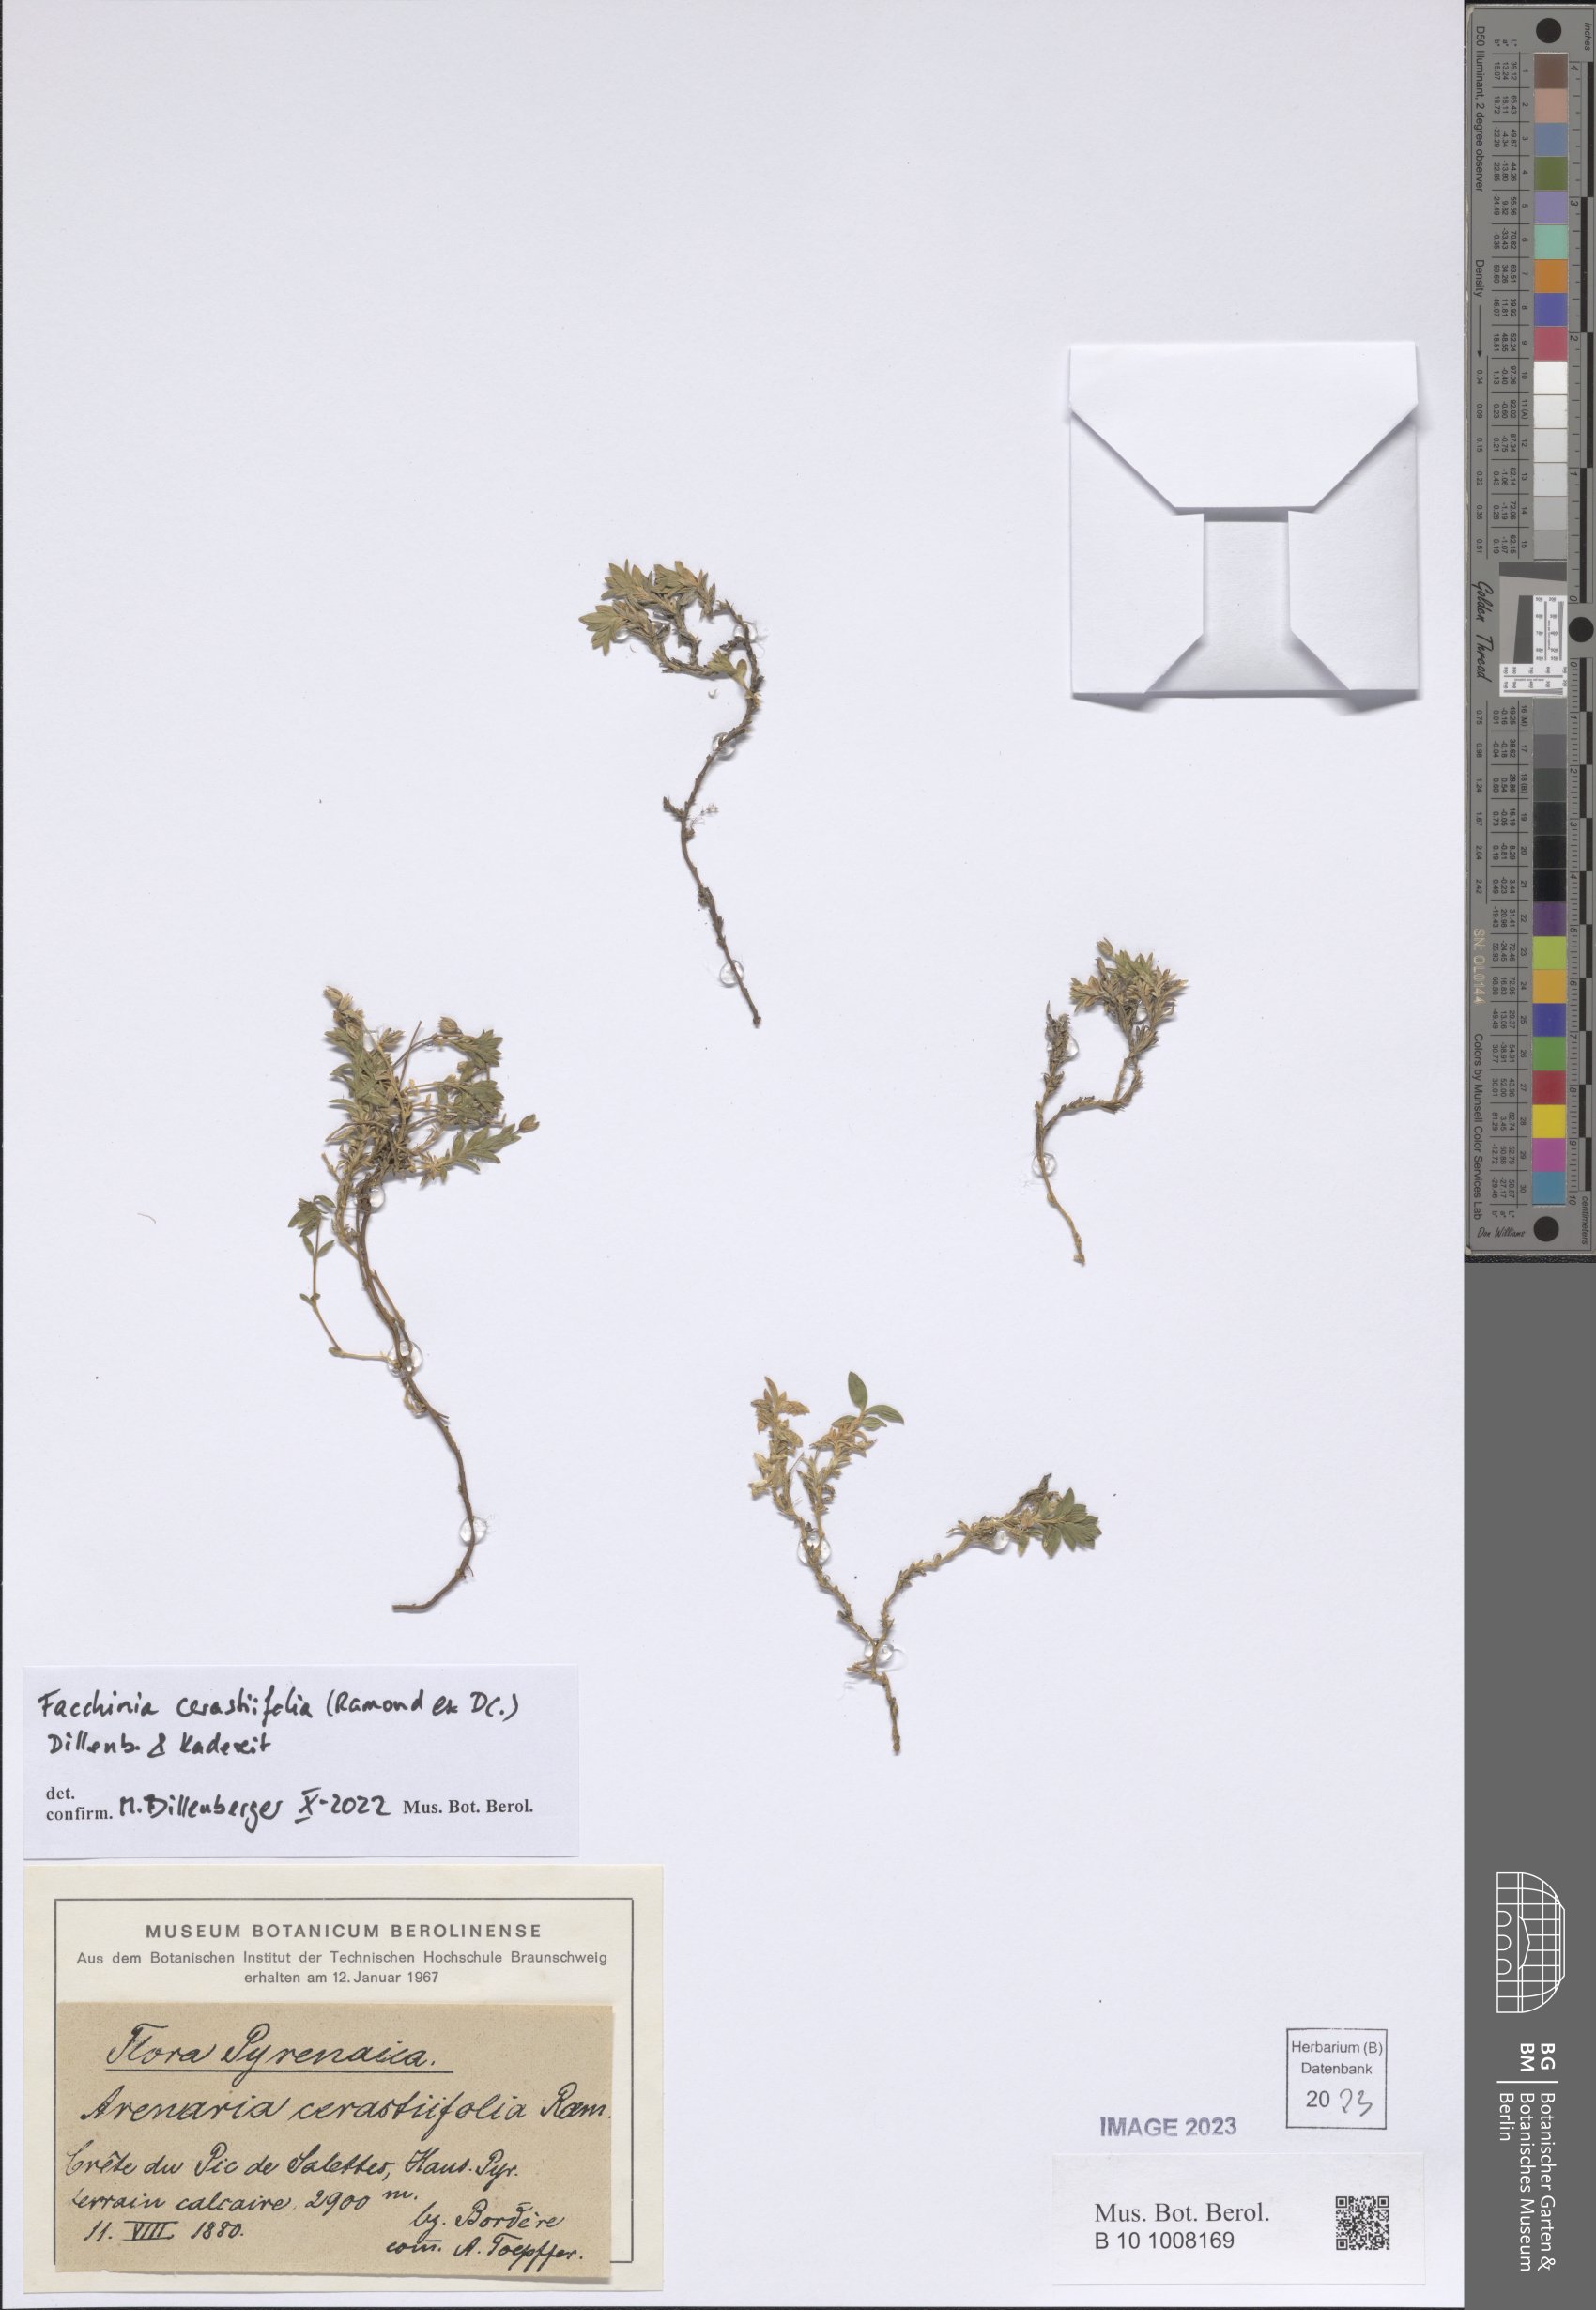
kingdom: Plantae
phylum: Tracheophyta
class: Magnoliopsida
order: Caryophyllales
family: Caryophyllaceae
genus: Facchinia
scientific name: Facchinia cerastiifolia
